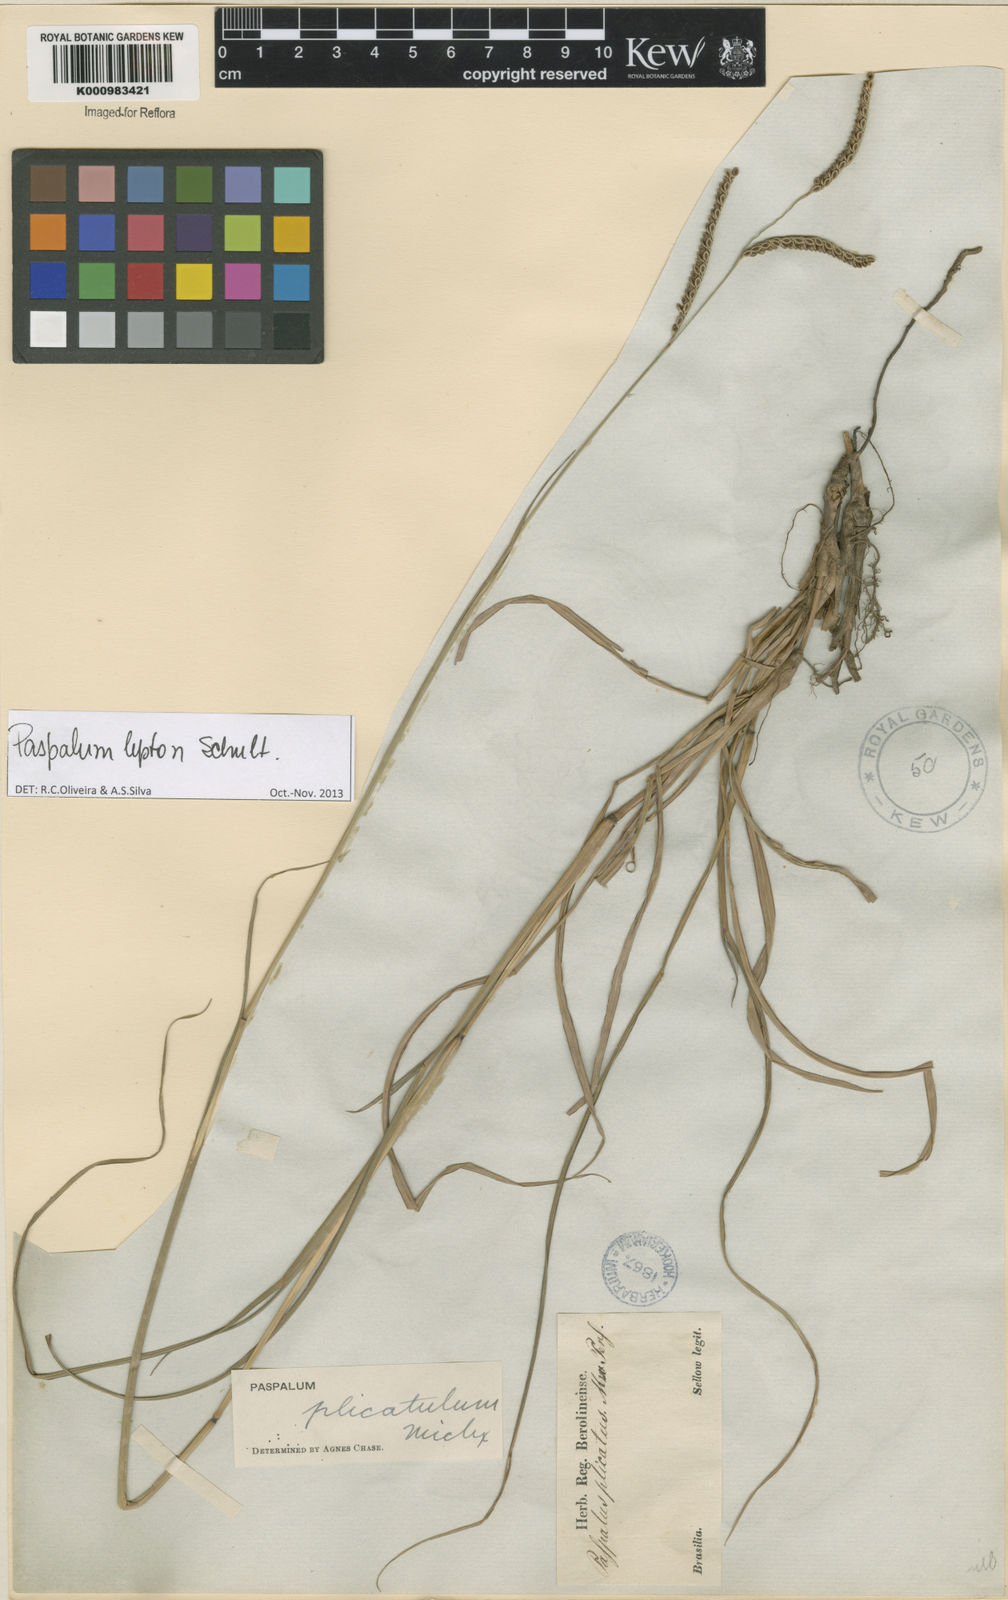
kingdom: Plantae
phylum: Tracheophyta
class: Liliopsida
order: Poales
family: Poaceae
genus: Paspalum
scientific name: Paspalum lepton
